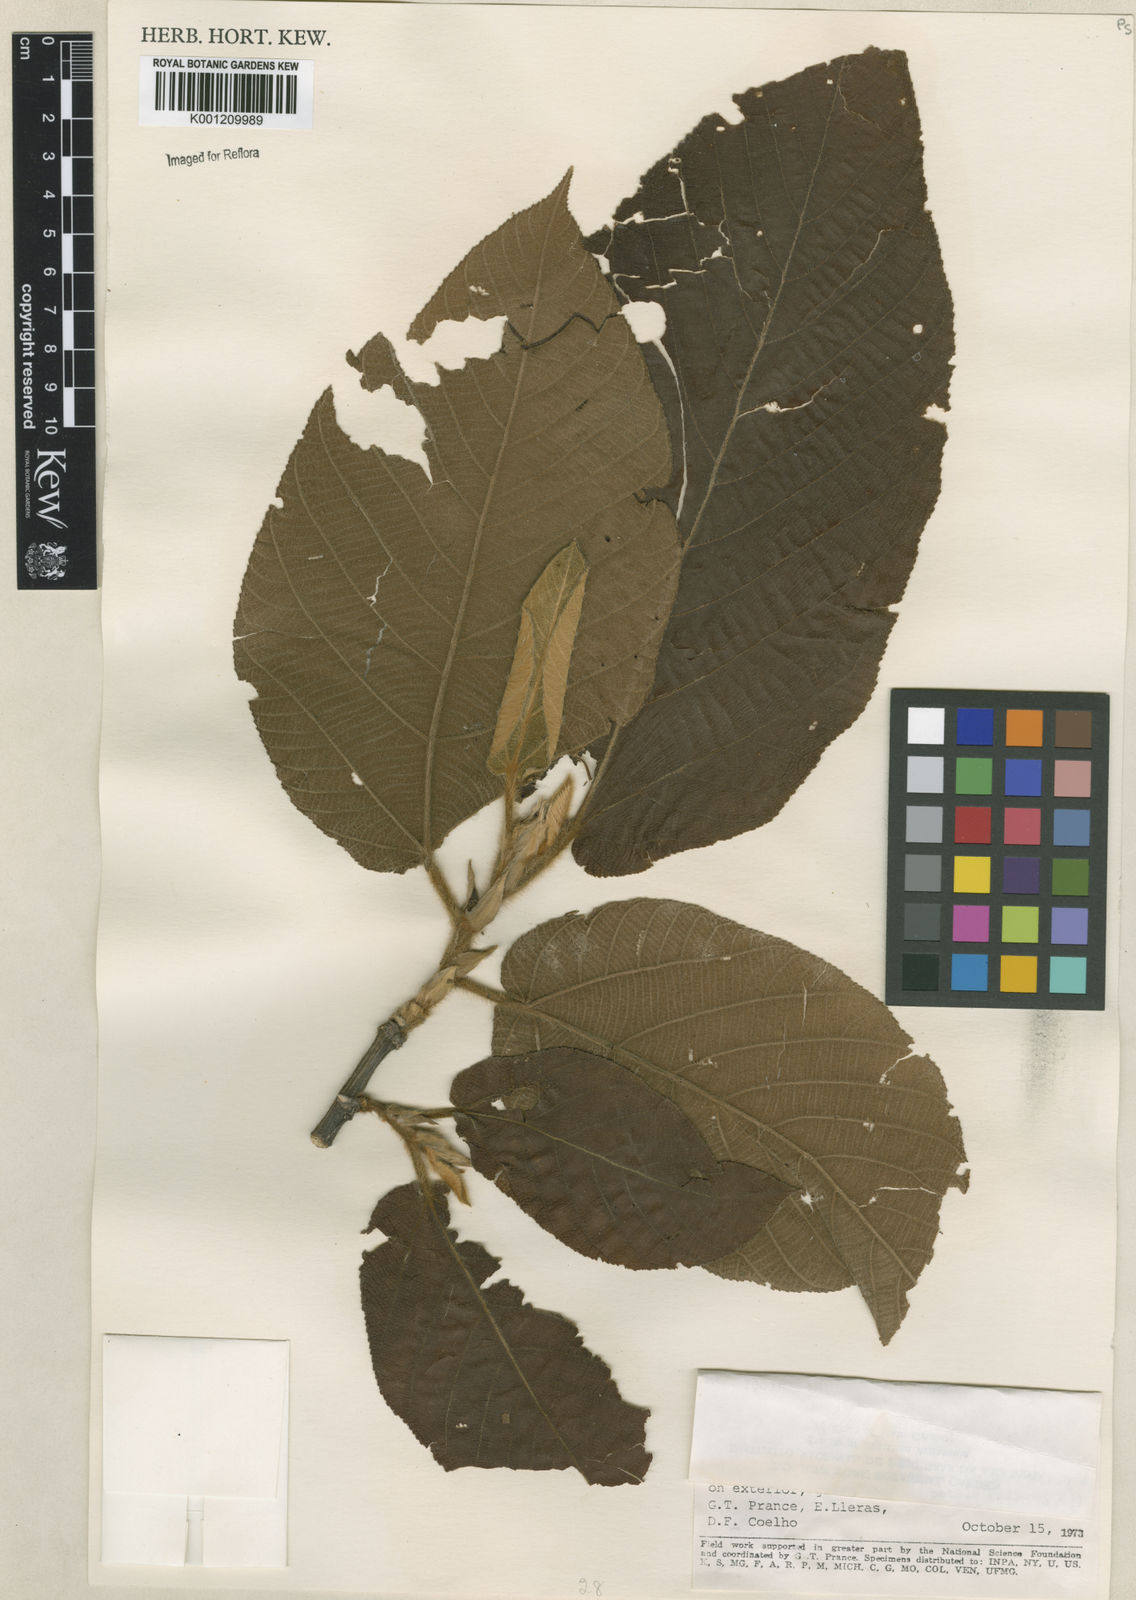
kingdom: Plantae
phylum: Tracheophyta
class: Magnoliopsida
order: Malvales
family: Malvaceae
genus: Apeiba
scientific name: Apeiba tibourbou
